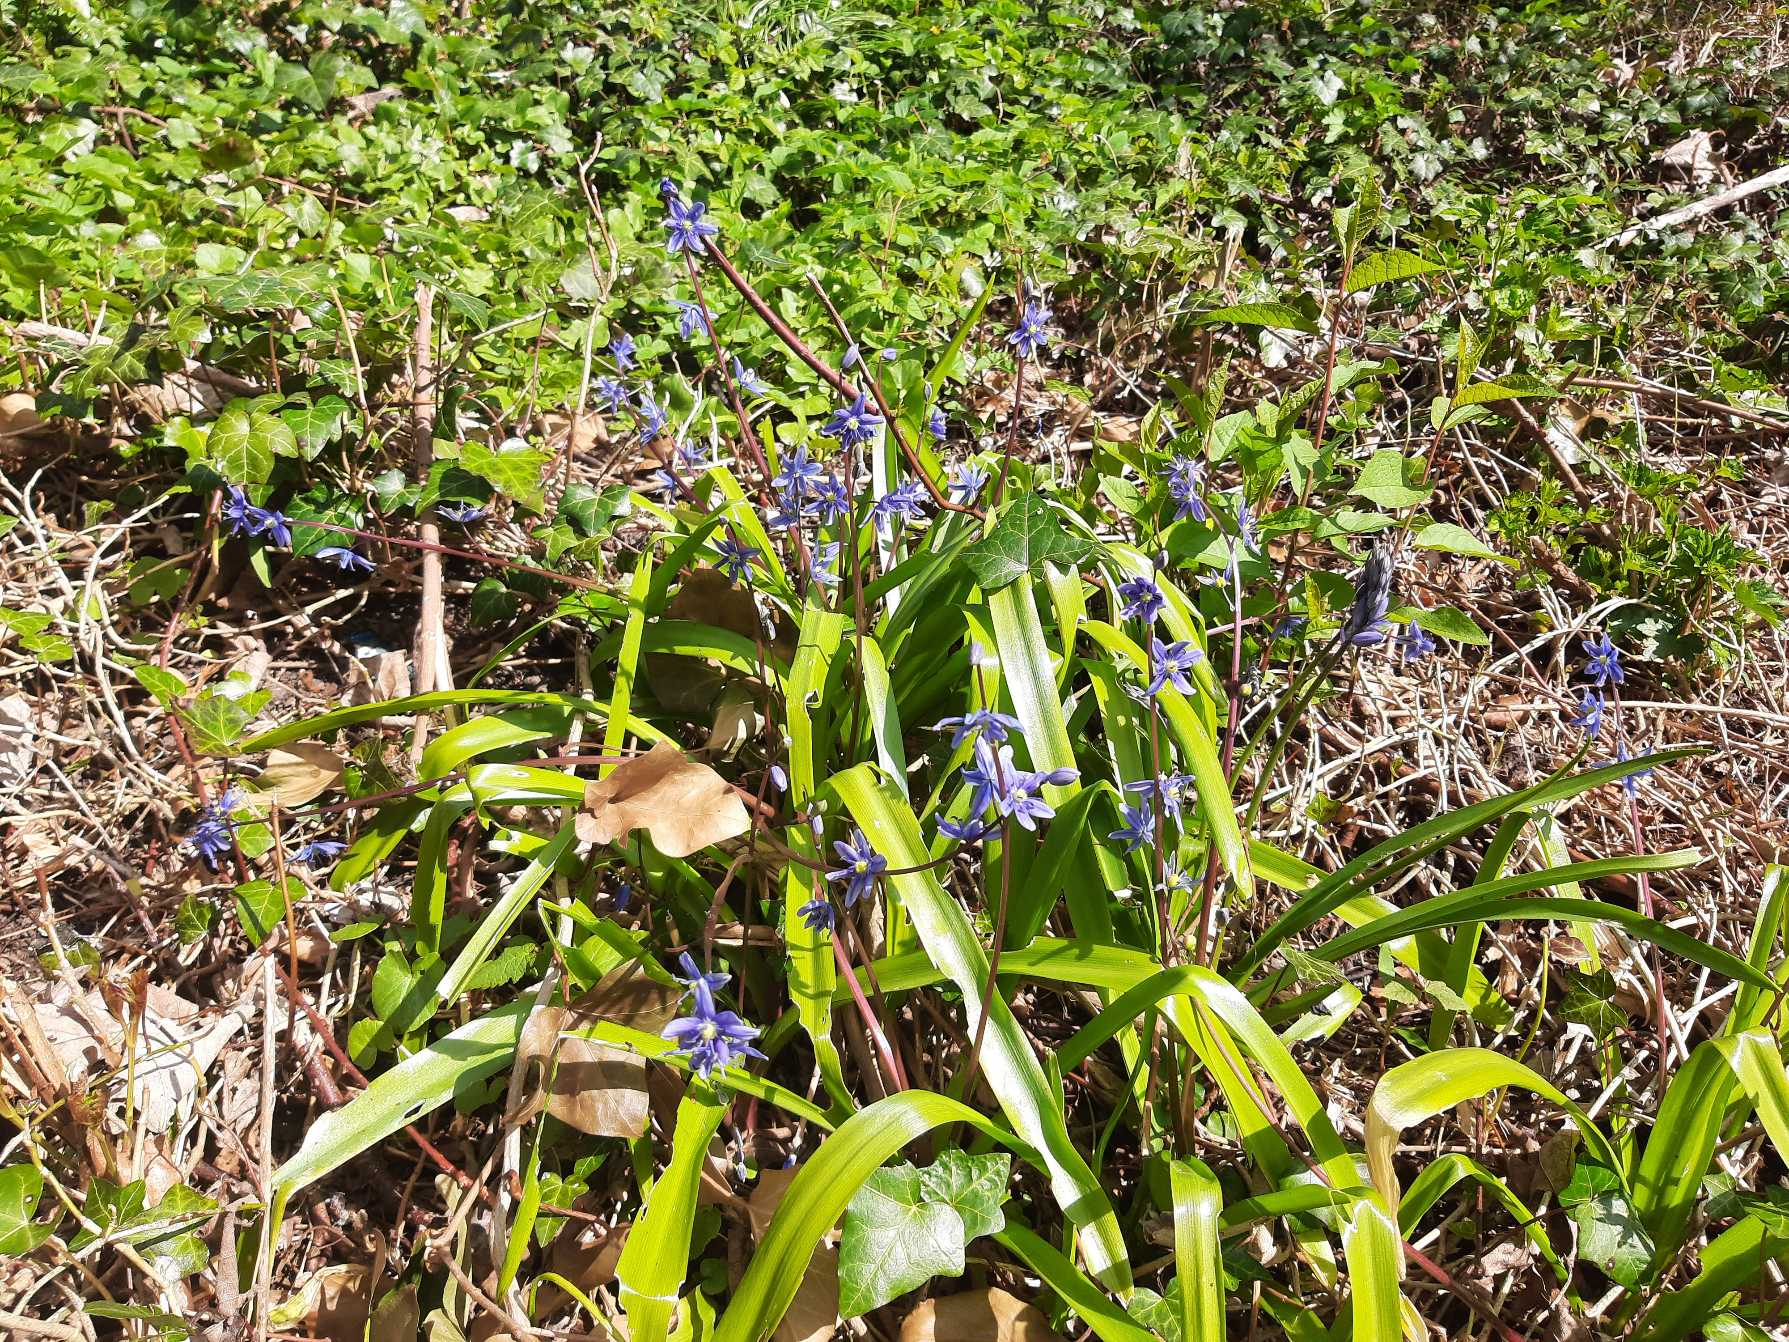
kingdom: Plantae
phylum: Tracheophyta
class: Liliopsida
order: Asparagales
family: Asparagaceae
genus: Scilla
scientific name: Scilla amoena
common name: Himmelblå skilla
